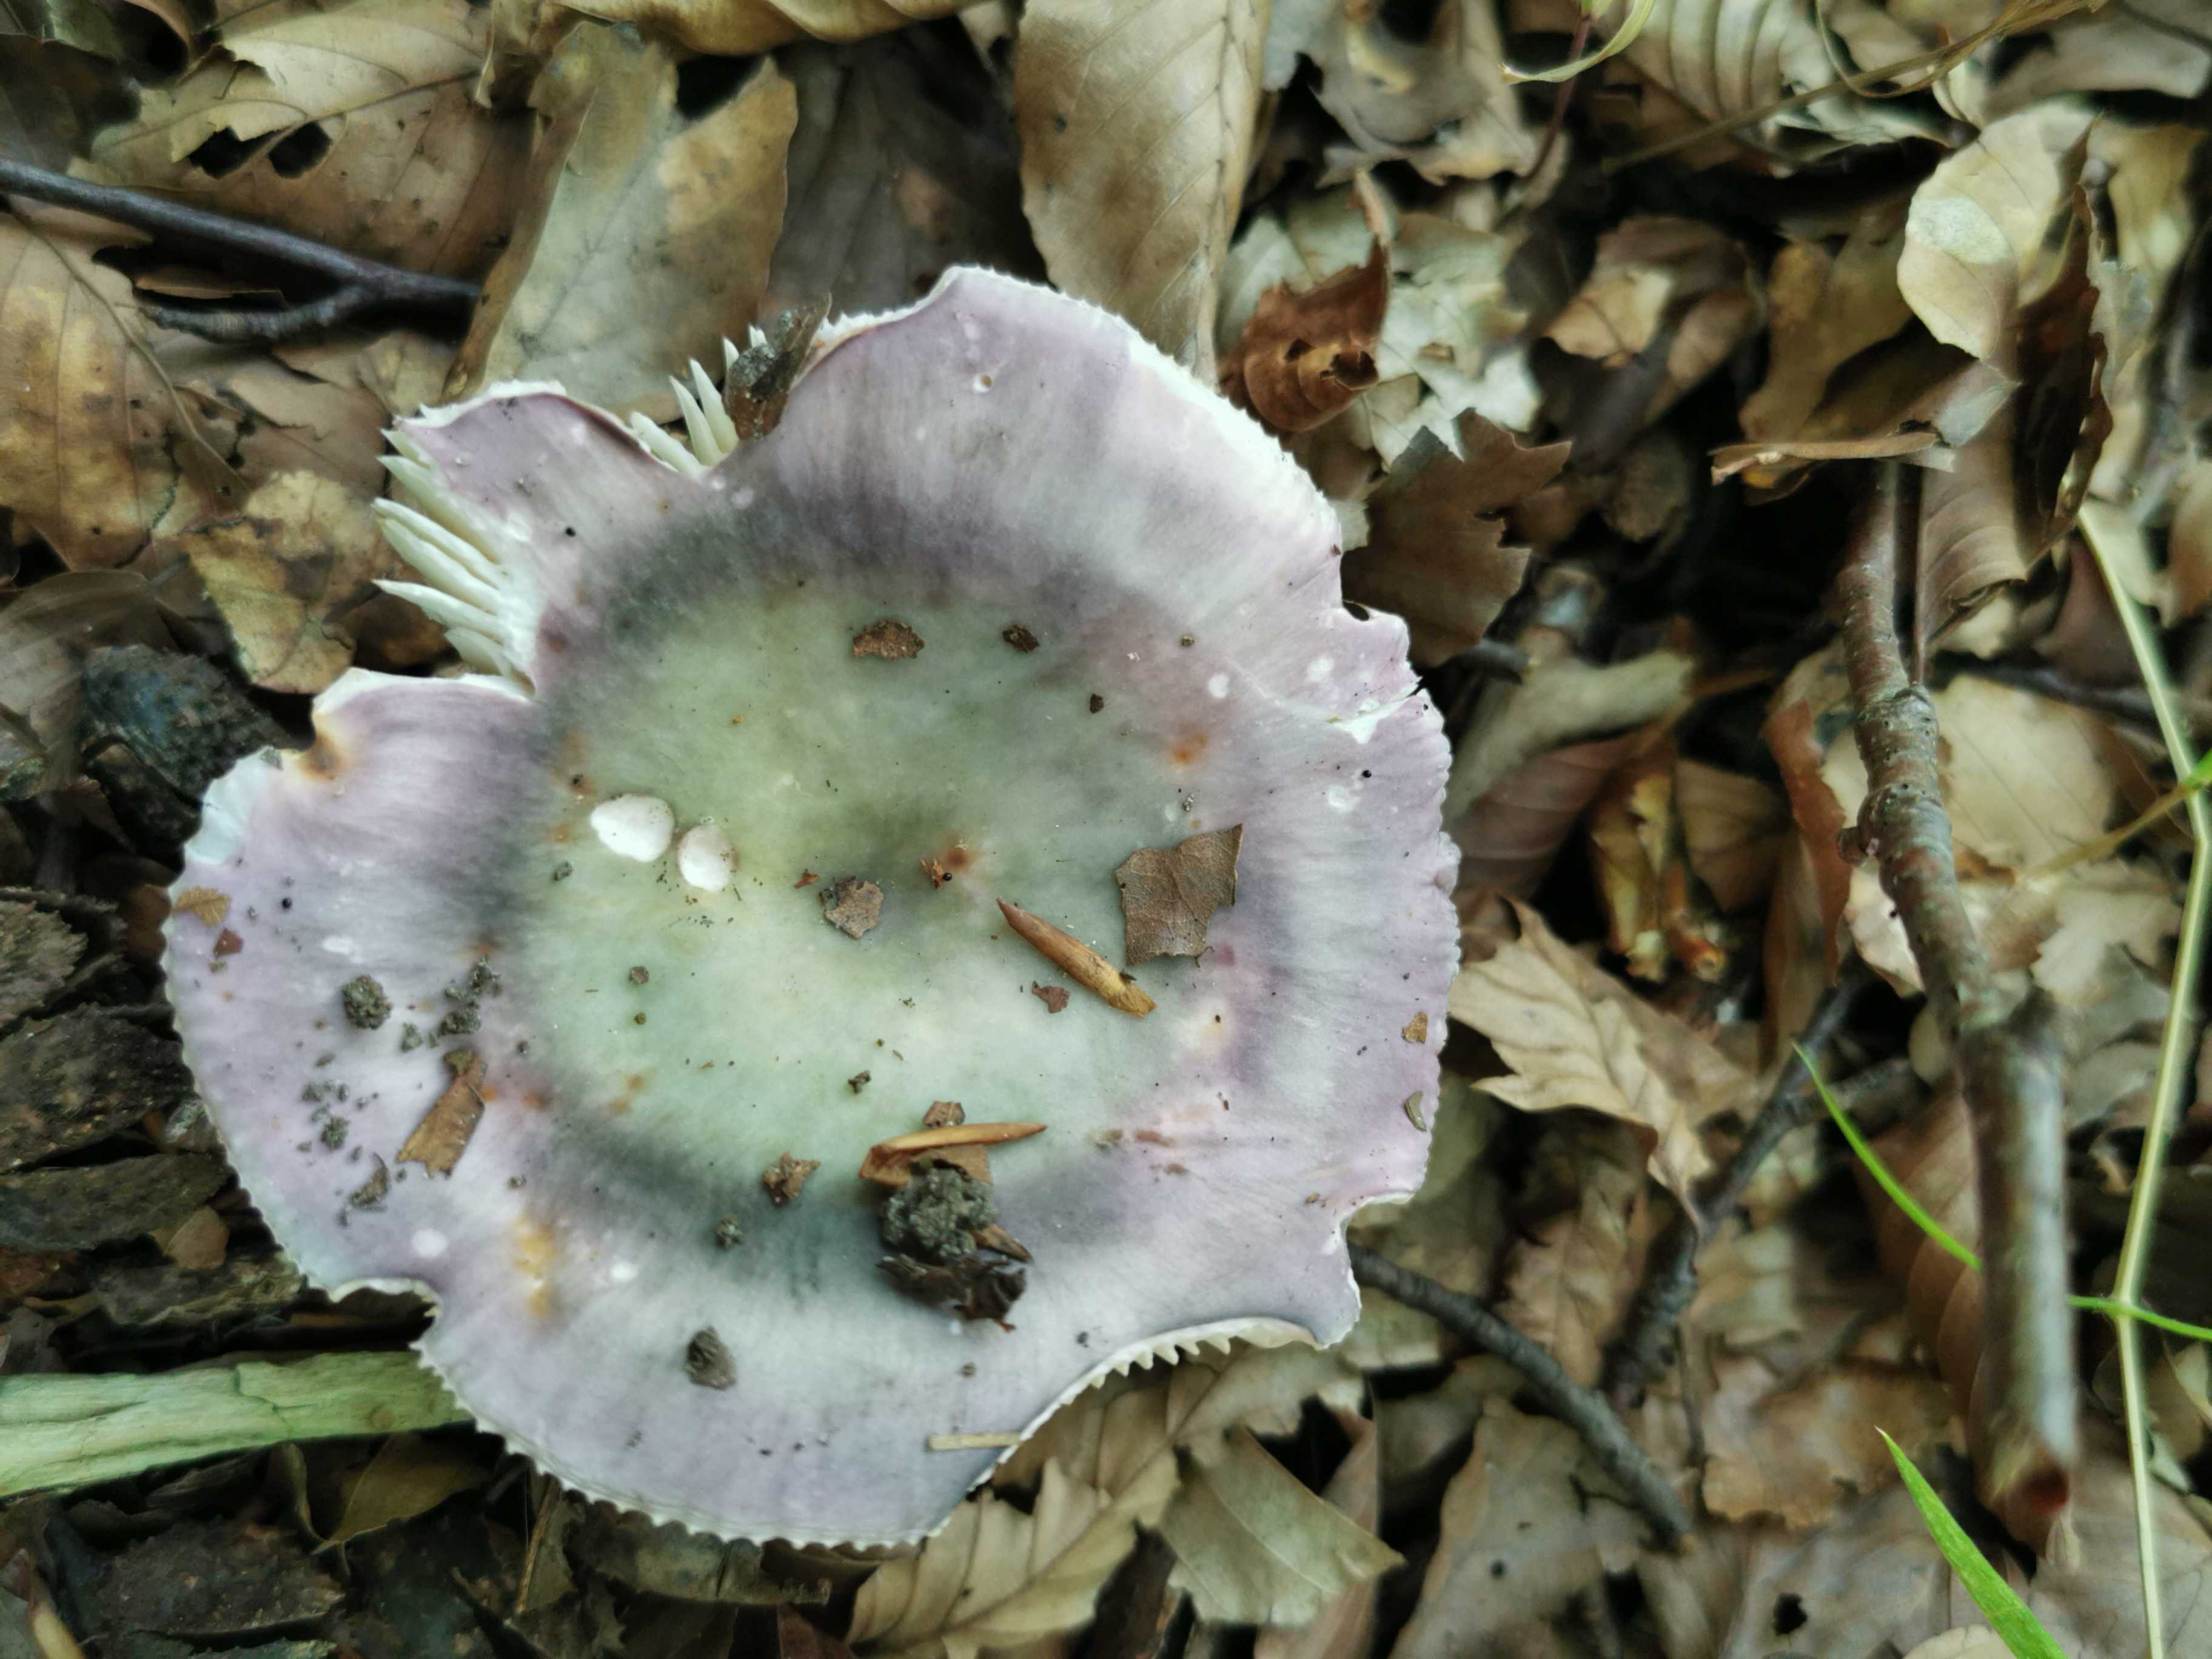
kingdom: Fungi
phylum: Basidiomycota
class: Agaricomycetes
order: Russulales
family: Russulaceae
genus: Russula
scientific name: Russula
